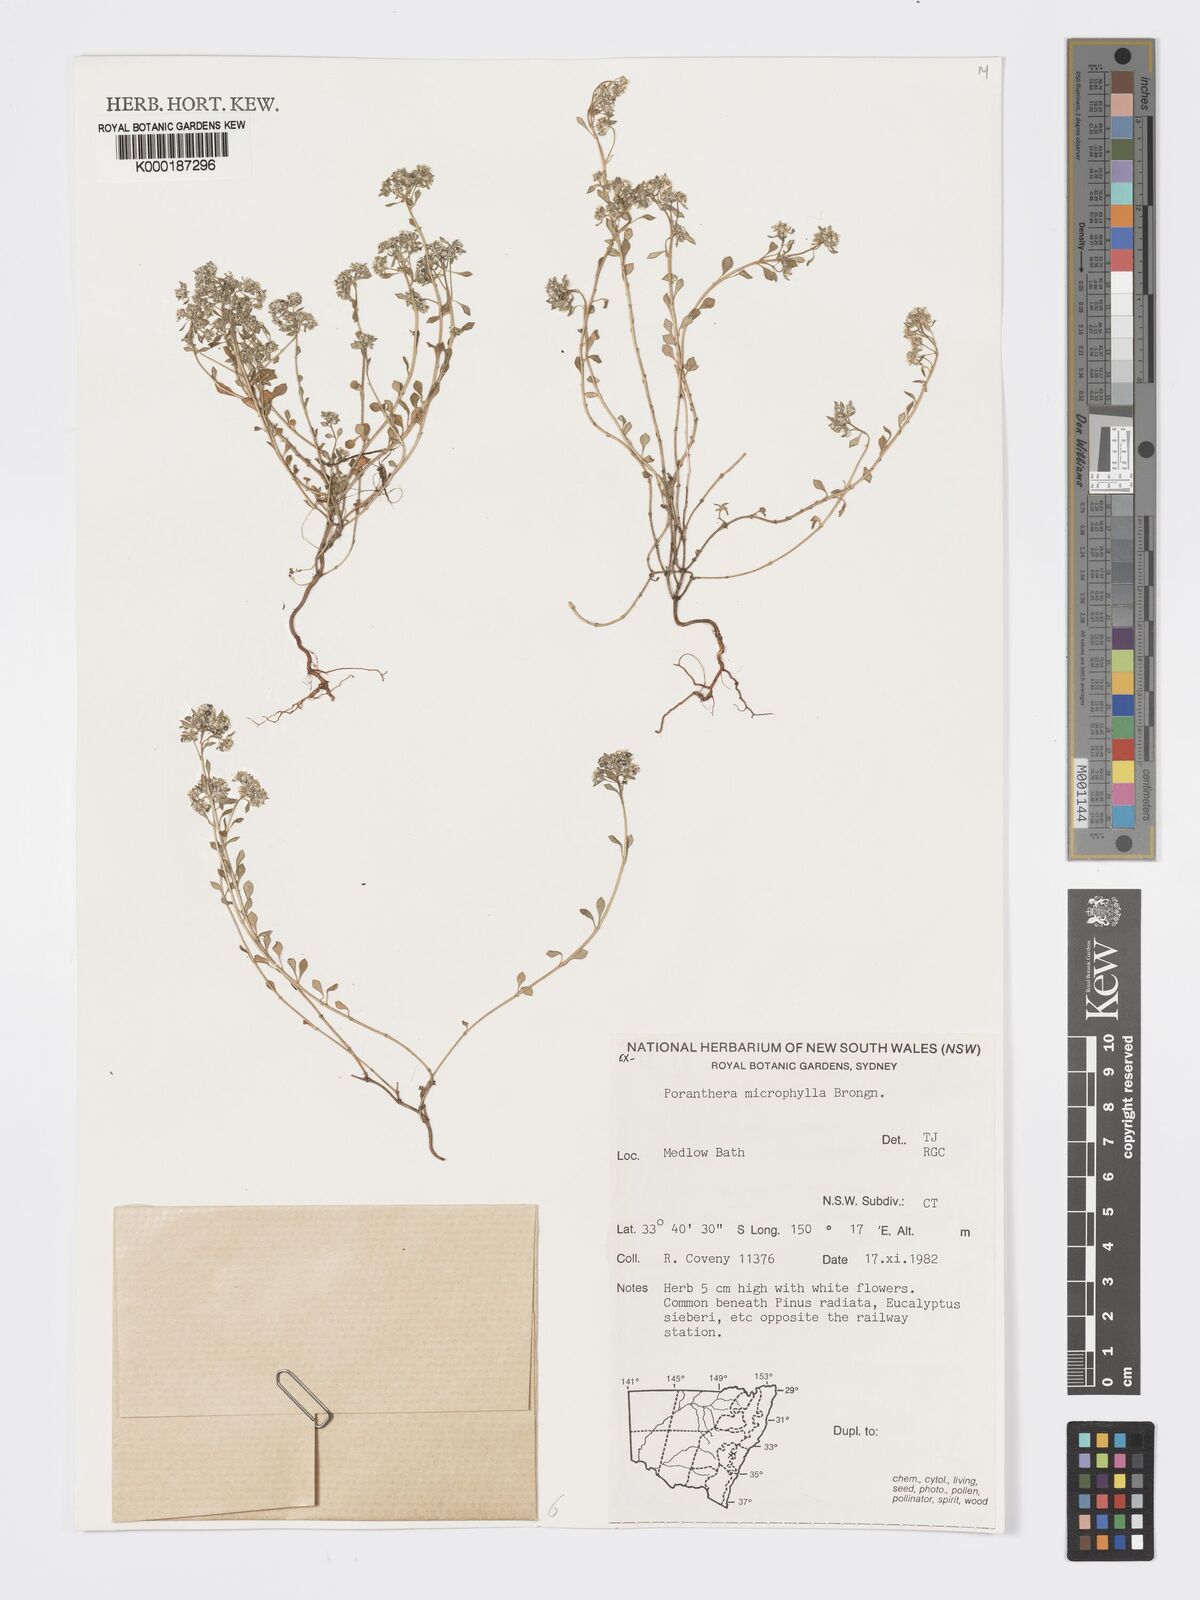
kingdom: Plantae
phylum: Tracheophyta
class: Magnoliopsida
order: Malpighiales
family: Phyllanthaceae
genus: Poranthera
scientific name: Poranthera microphylla
